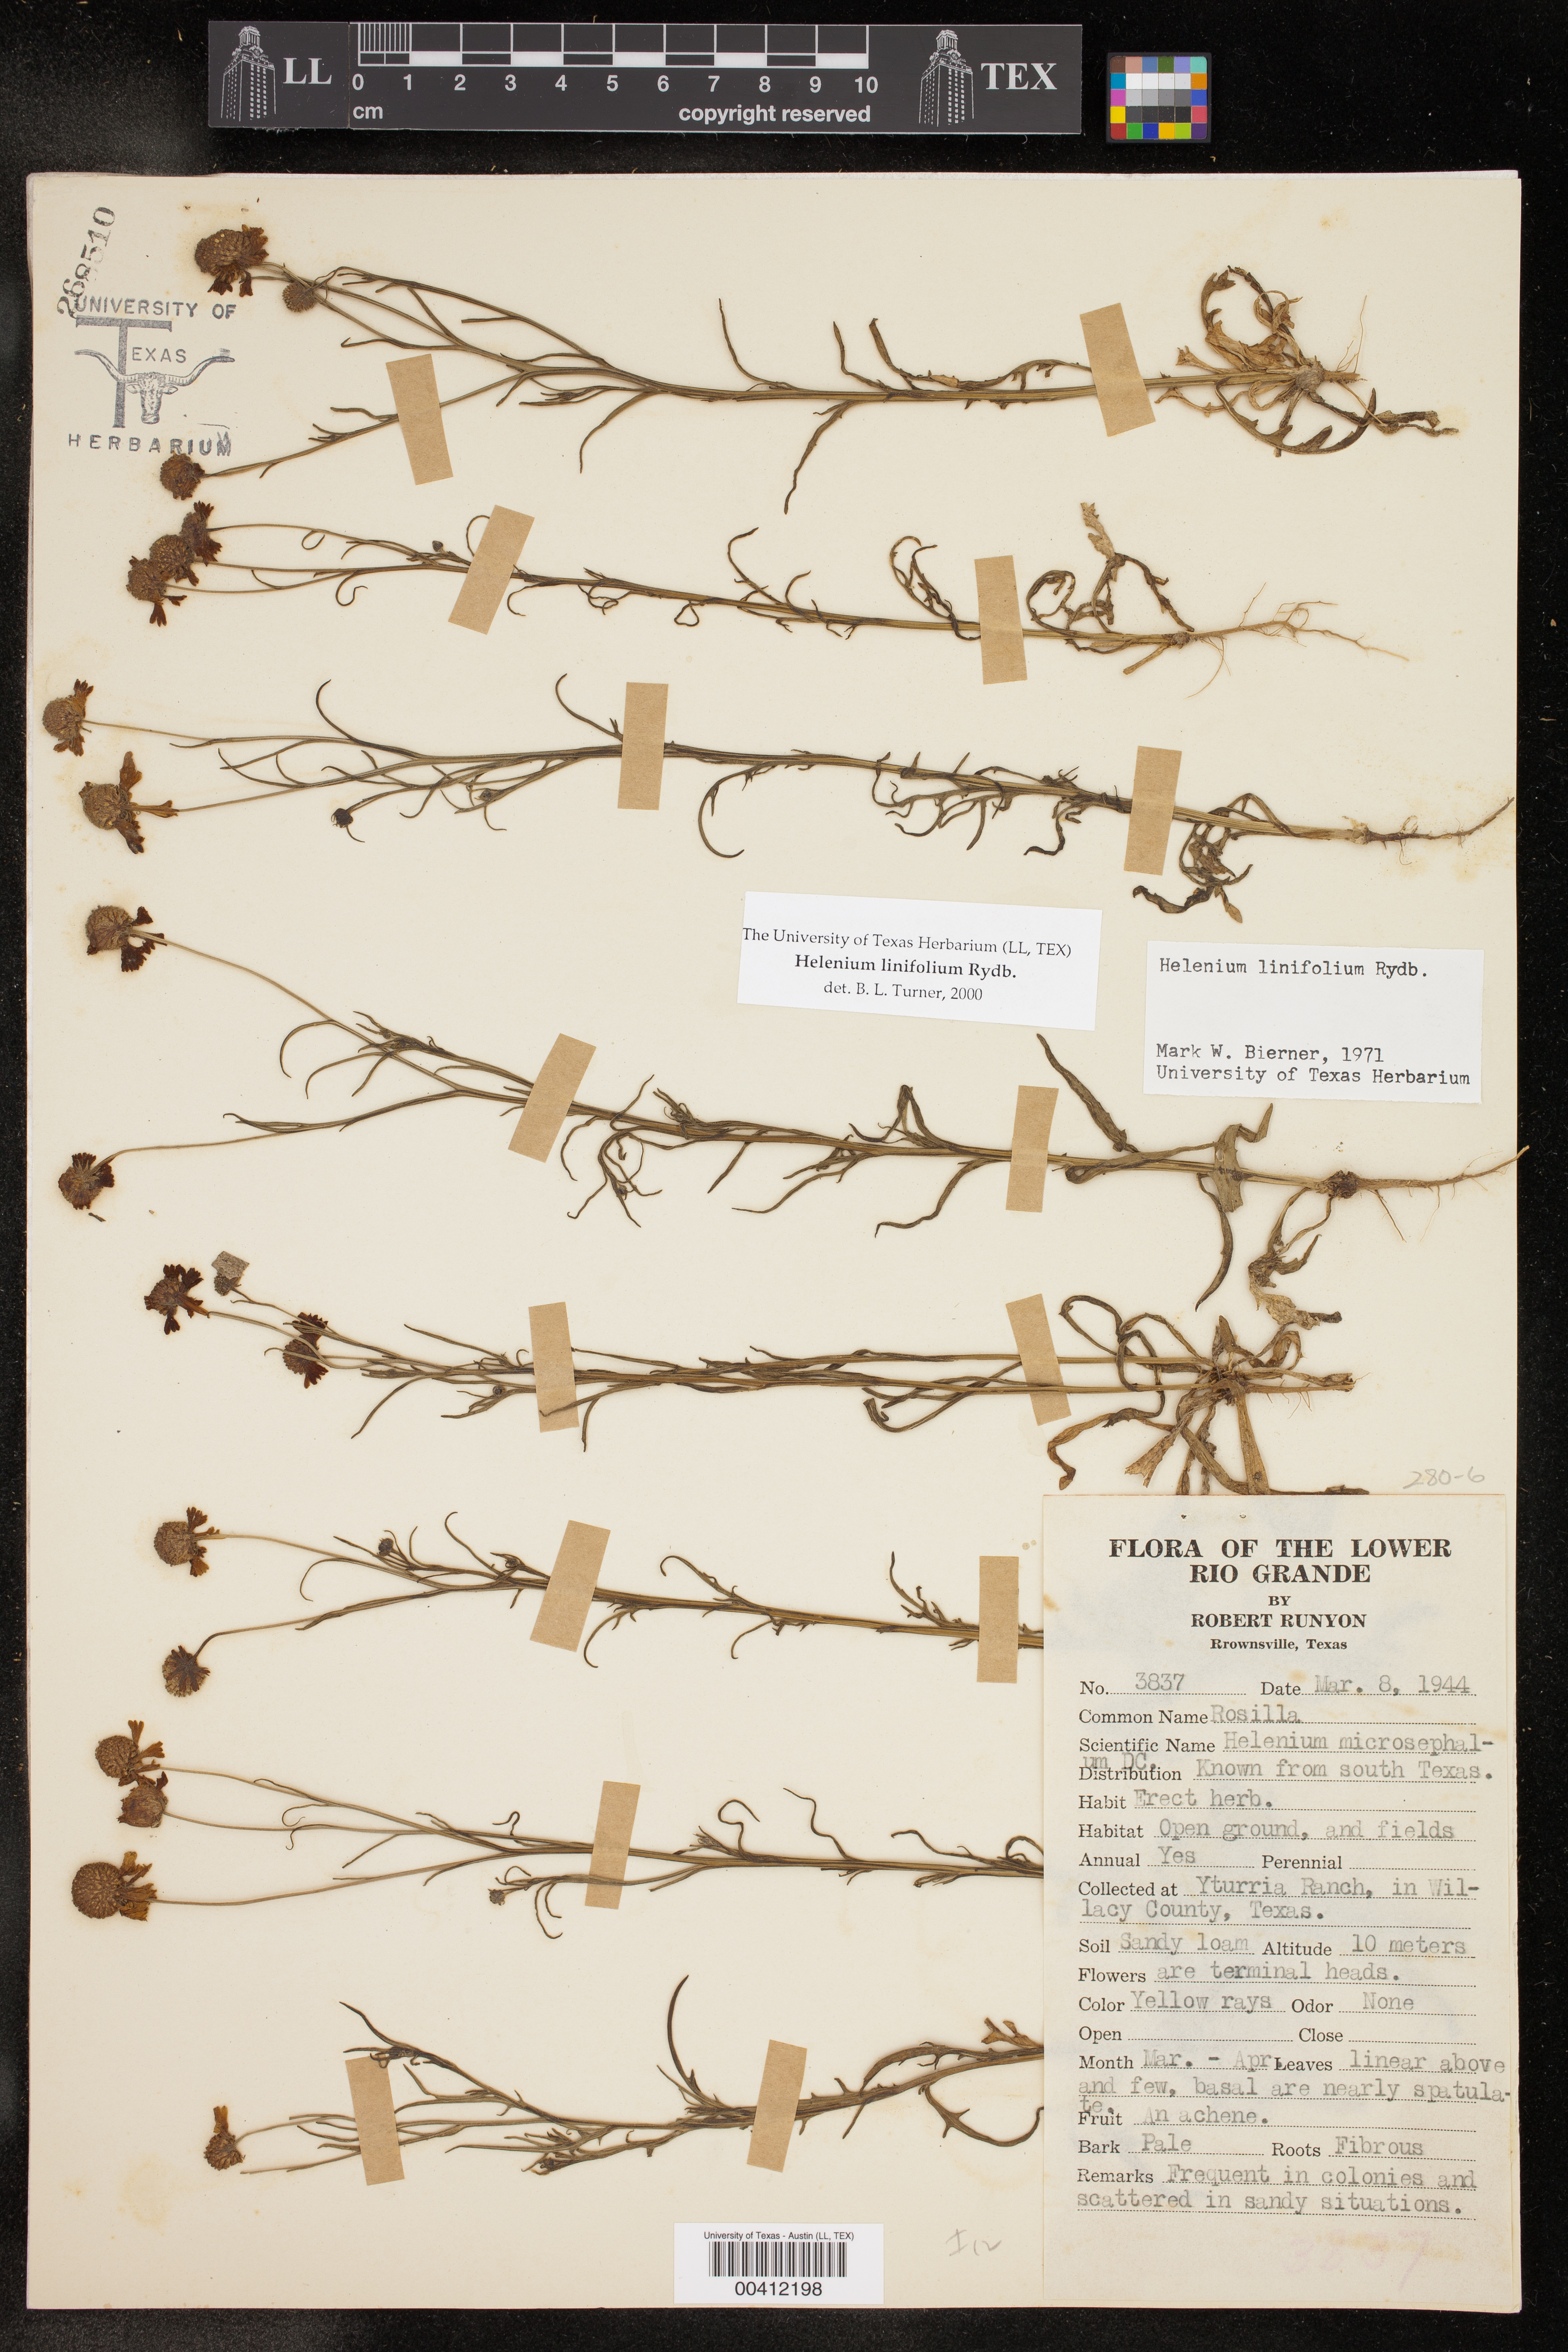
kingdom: Plantae
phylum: Tracheophyta
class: Magnoliopsida
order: Asterales
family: Asteraceae
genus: Helenium
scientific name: Helenium linifolium
